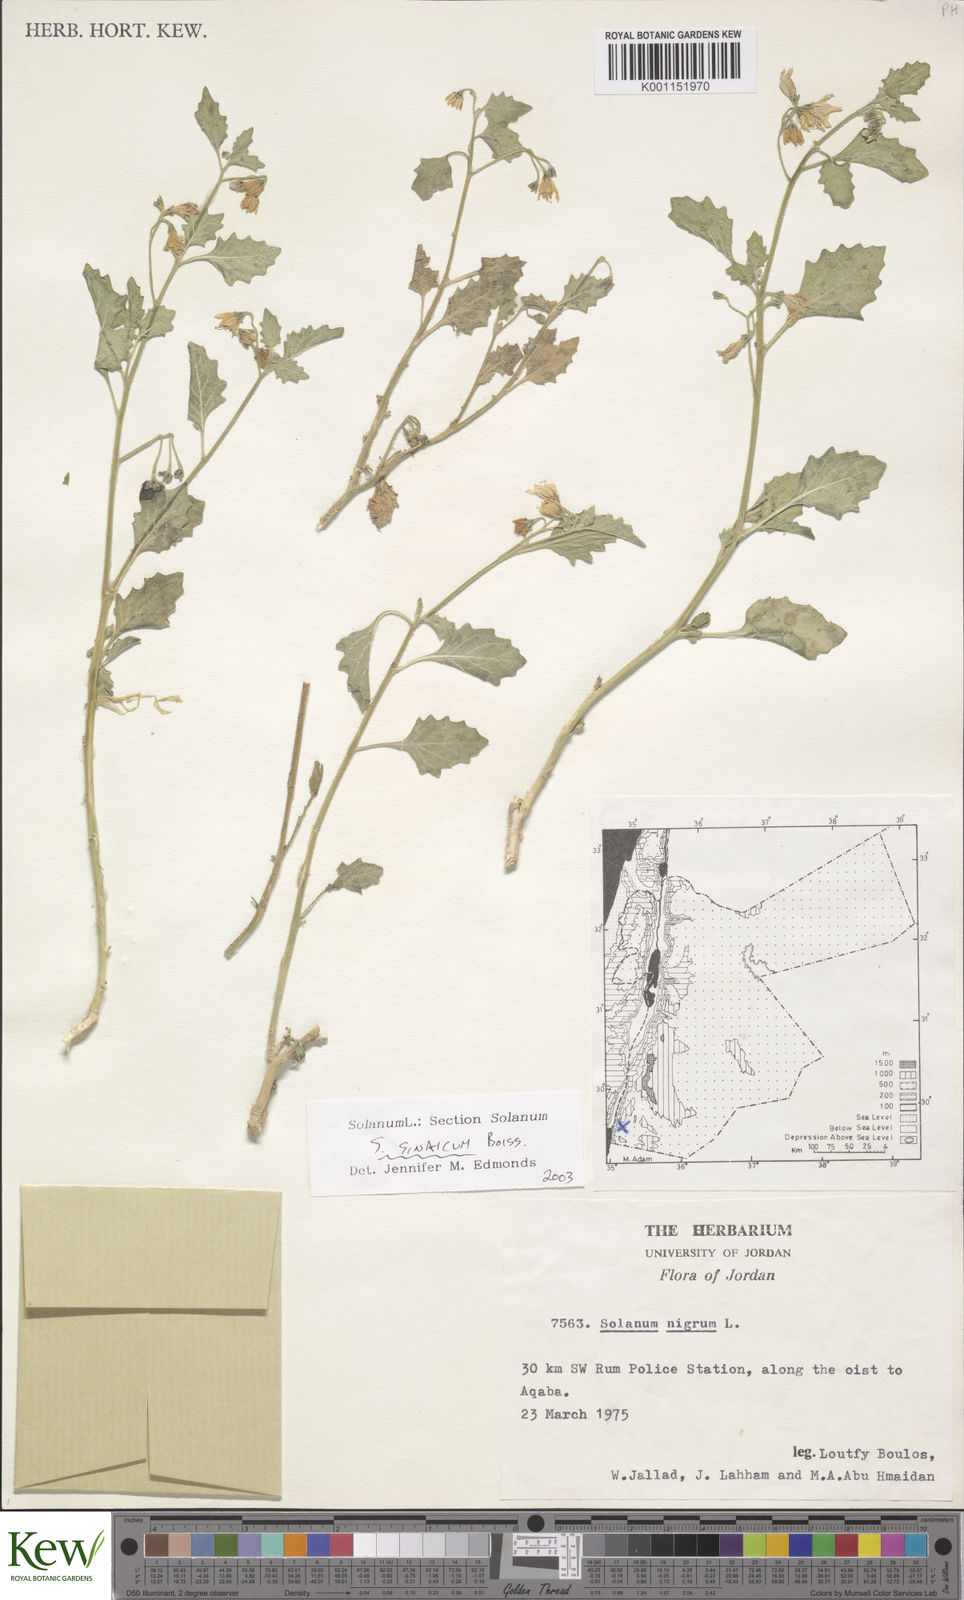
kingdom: Plantae
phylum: Tracheophyta
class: Magnoliopsida
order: Solanales
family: Solanaceae
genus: Solanum
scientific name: Solanum villosum
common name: Red nightshade
